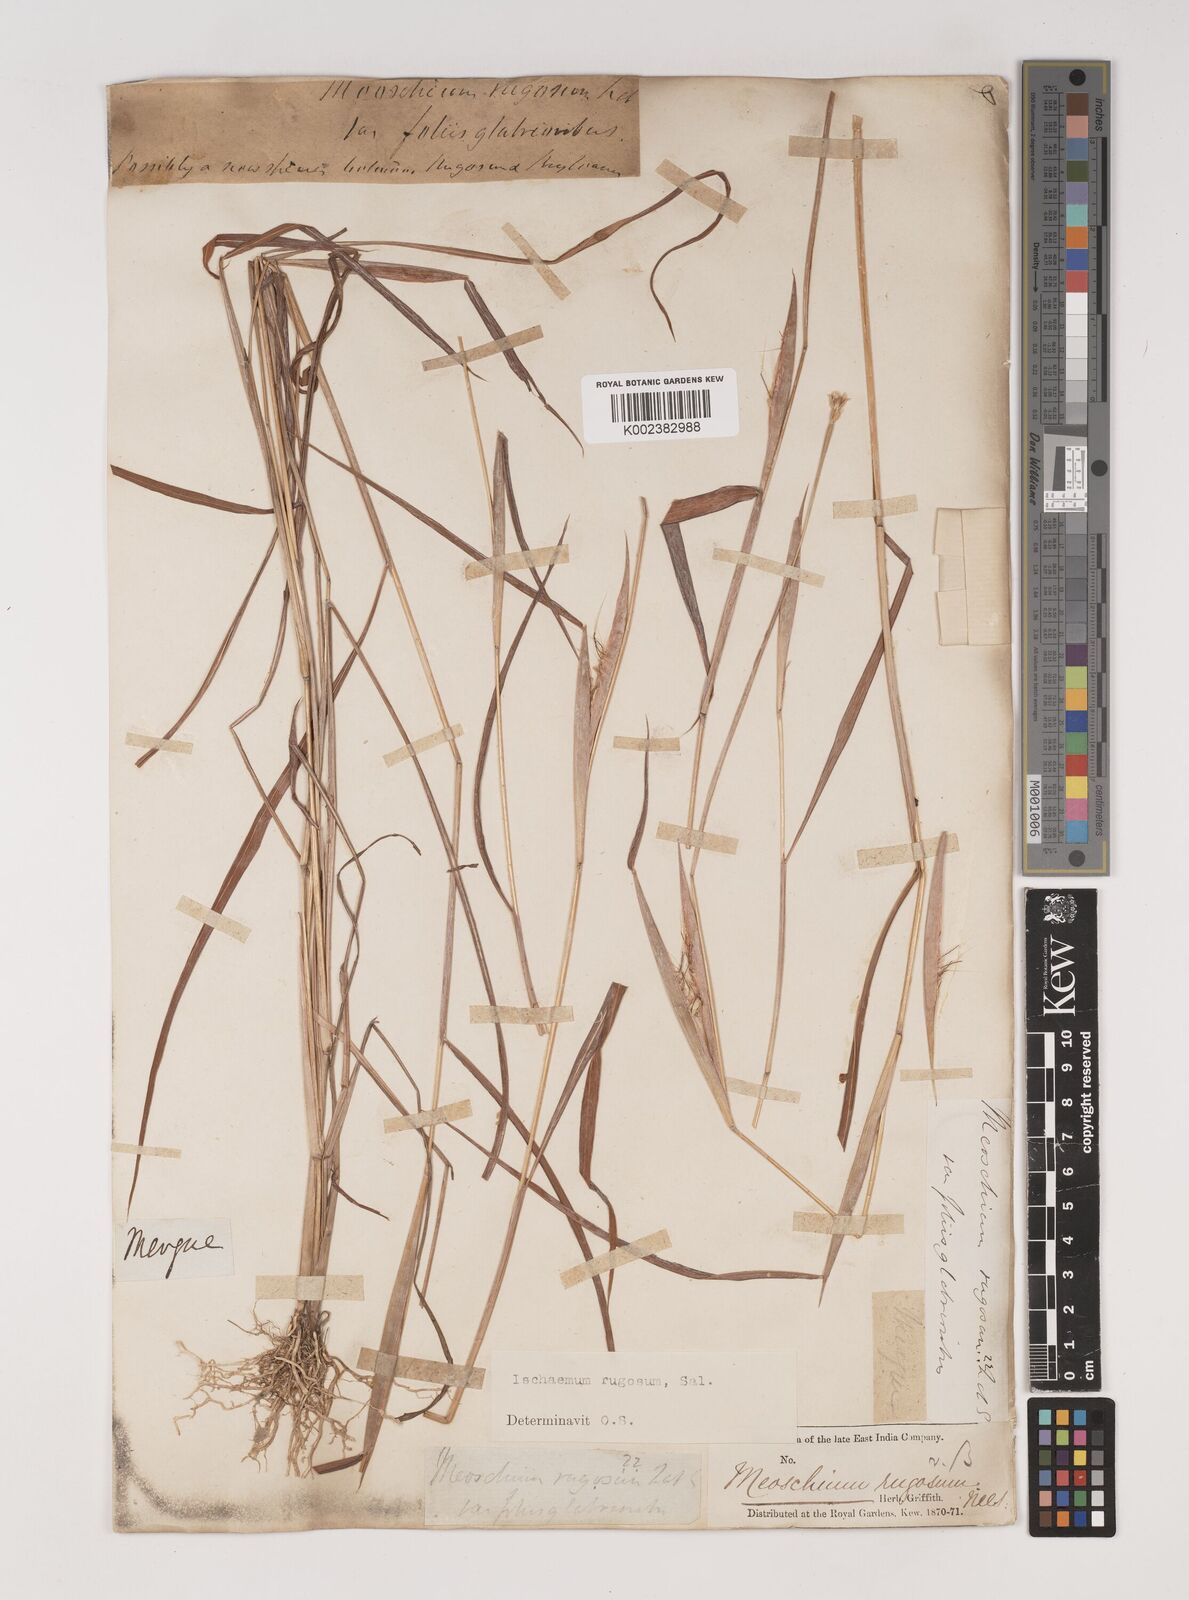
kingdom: Plantae
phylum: Tracheophyta
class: Liliopsida
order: Poales
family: Poaceae
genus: Ischaemum
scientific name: Ischaemum rugosum
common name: Saramatta grass
